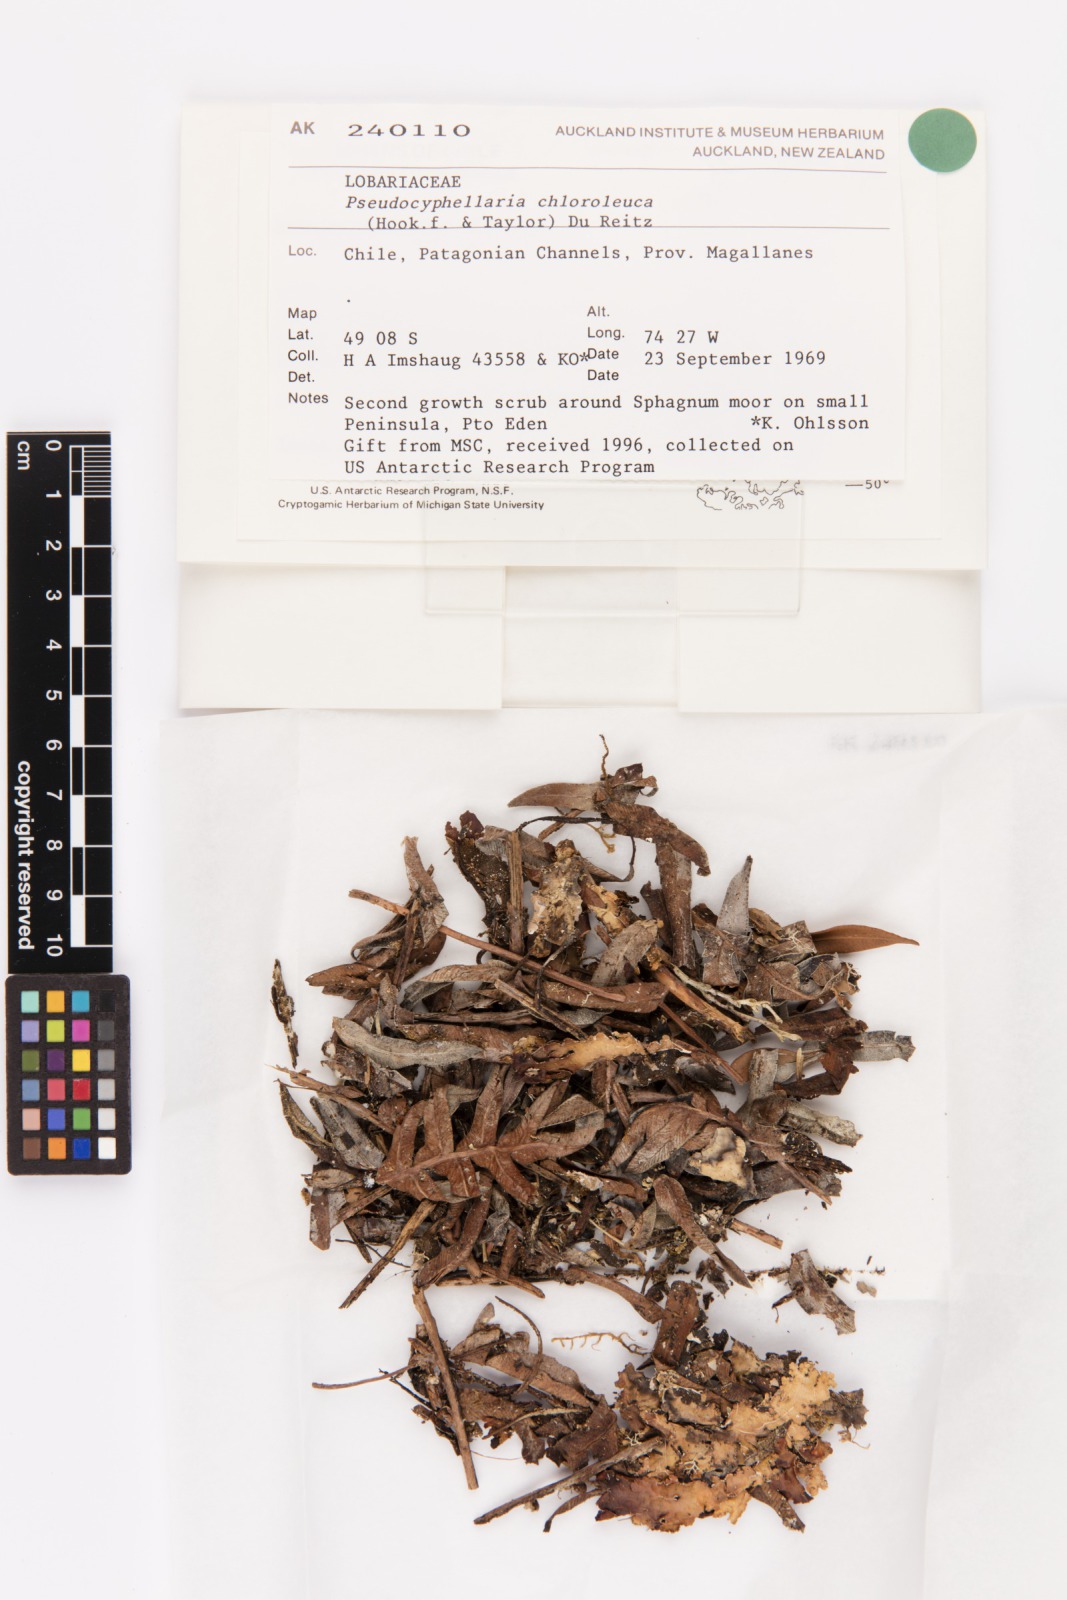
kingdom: Fungi
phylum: Ascomycota
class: Lecanoromycetes
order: Peltigerales
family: Lobariaceae
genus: Pseudocyphellaria
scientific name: Pseudocyphellaria chloroleuca
